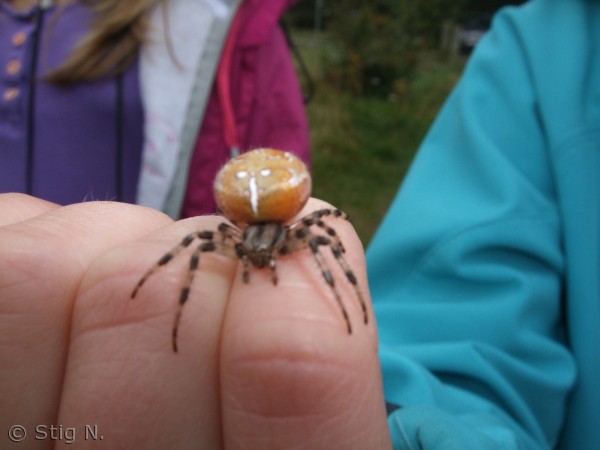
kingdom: Animalia
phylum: Arthropoda
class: Arachnida
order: Araneae
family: Araneidae
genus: Araneus
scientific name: Araneus quadratus
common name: Kvadratedderkop
